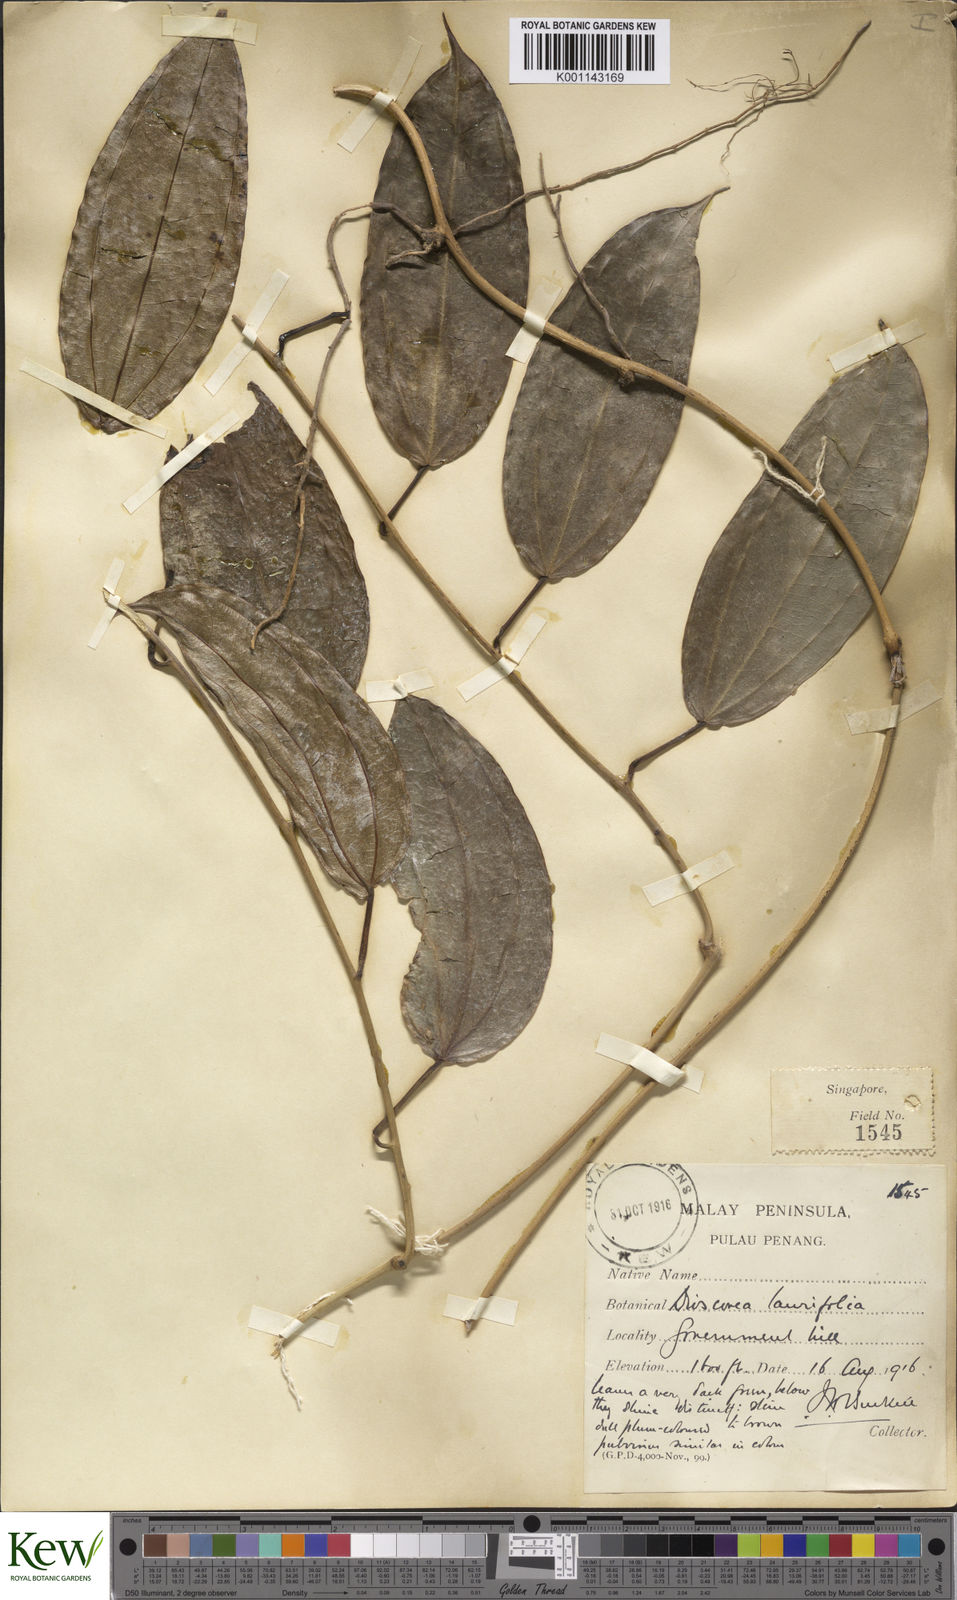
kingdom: Plantae
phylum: Tracheophyta
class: Liliopsida
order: Dioscoreales
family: Dioscoreaceae
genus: Dioscorea
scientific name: Dioscorea laurifolia
